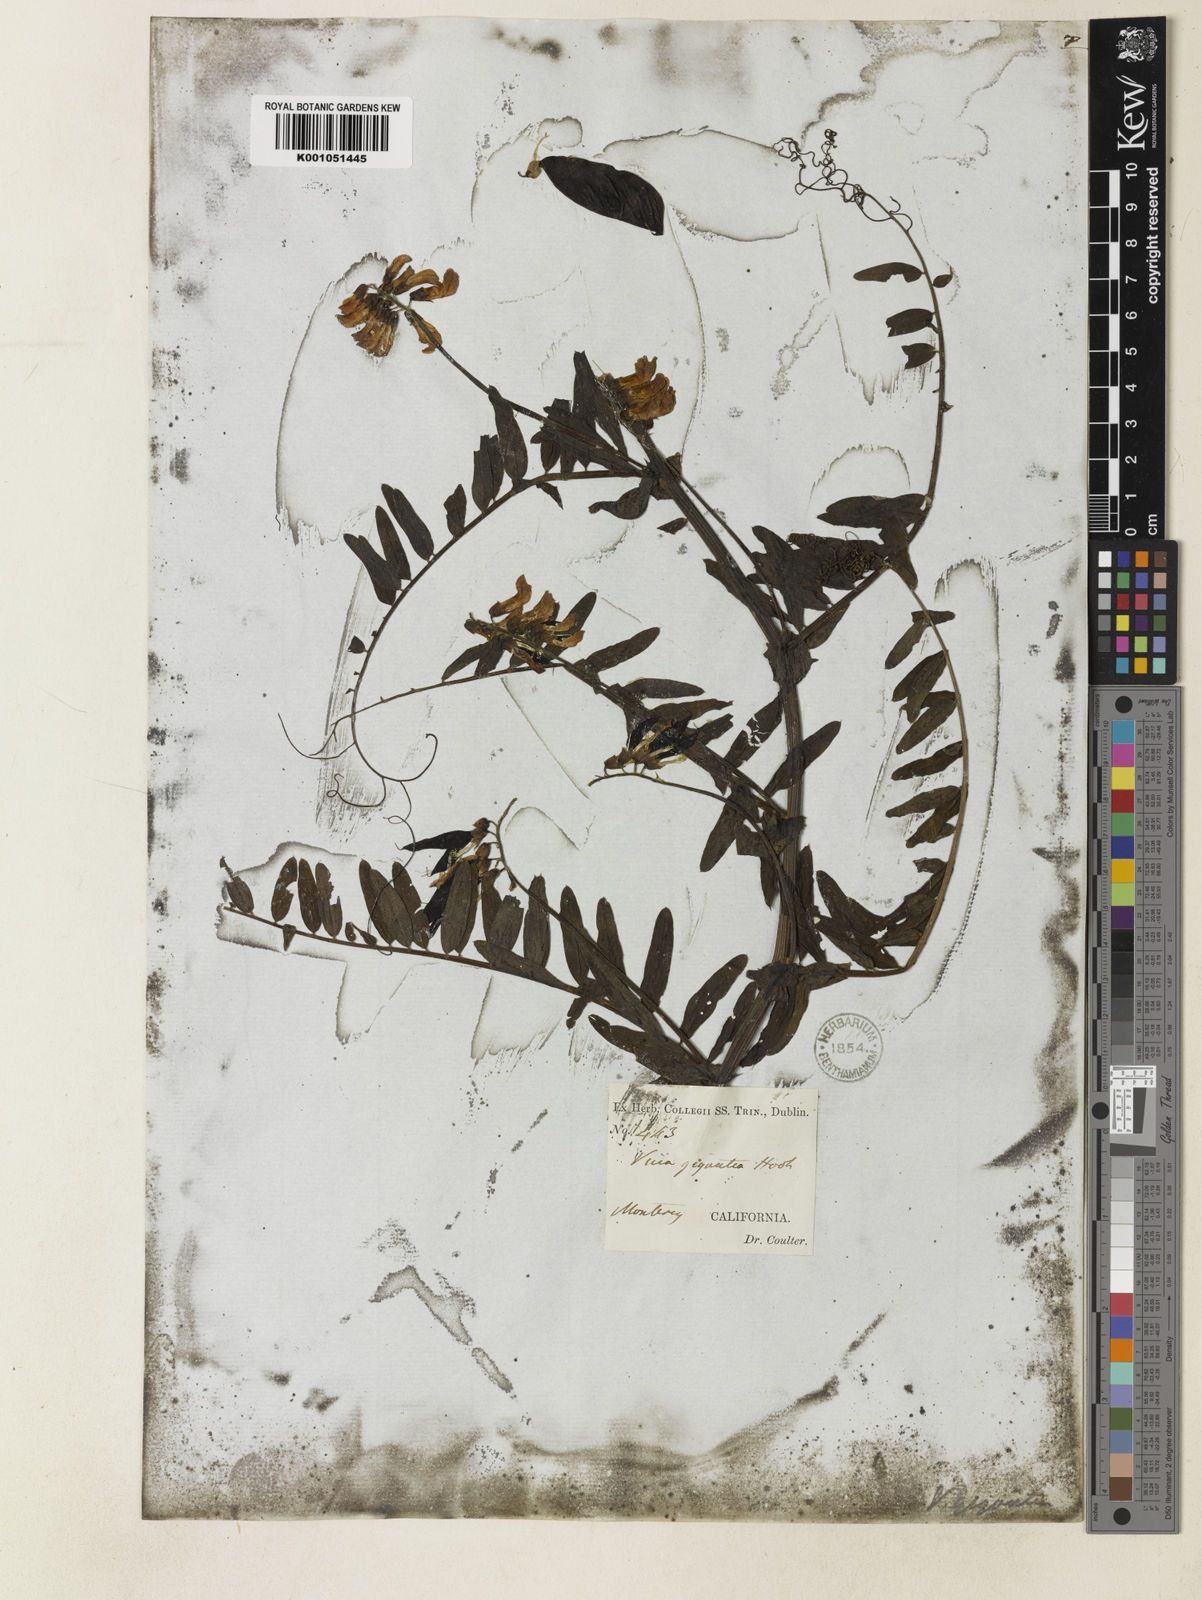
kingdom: Plantae
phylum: Tracheophyta
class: Magnoliopsida
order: Fabales
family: Fabaceae
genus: Vicia
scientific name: Vicia nigricans
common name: Black vetch
